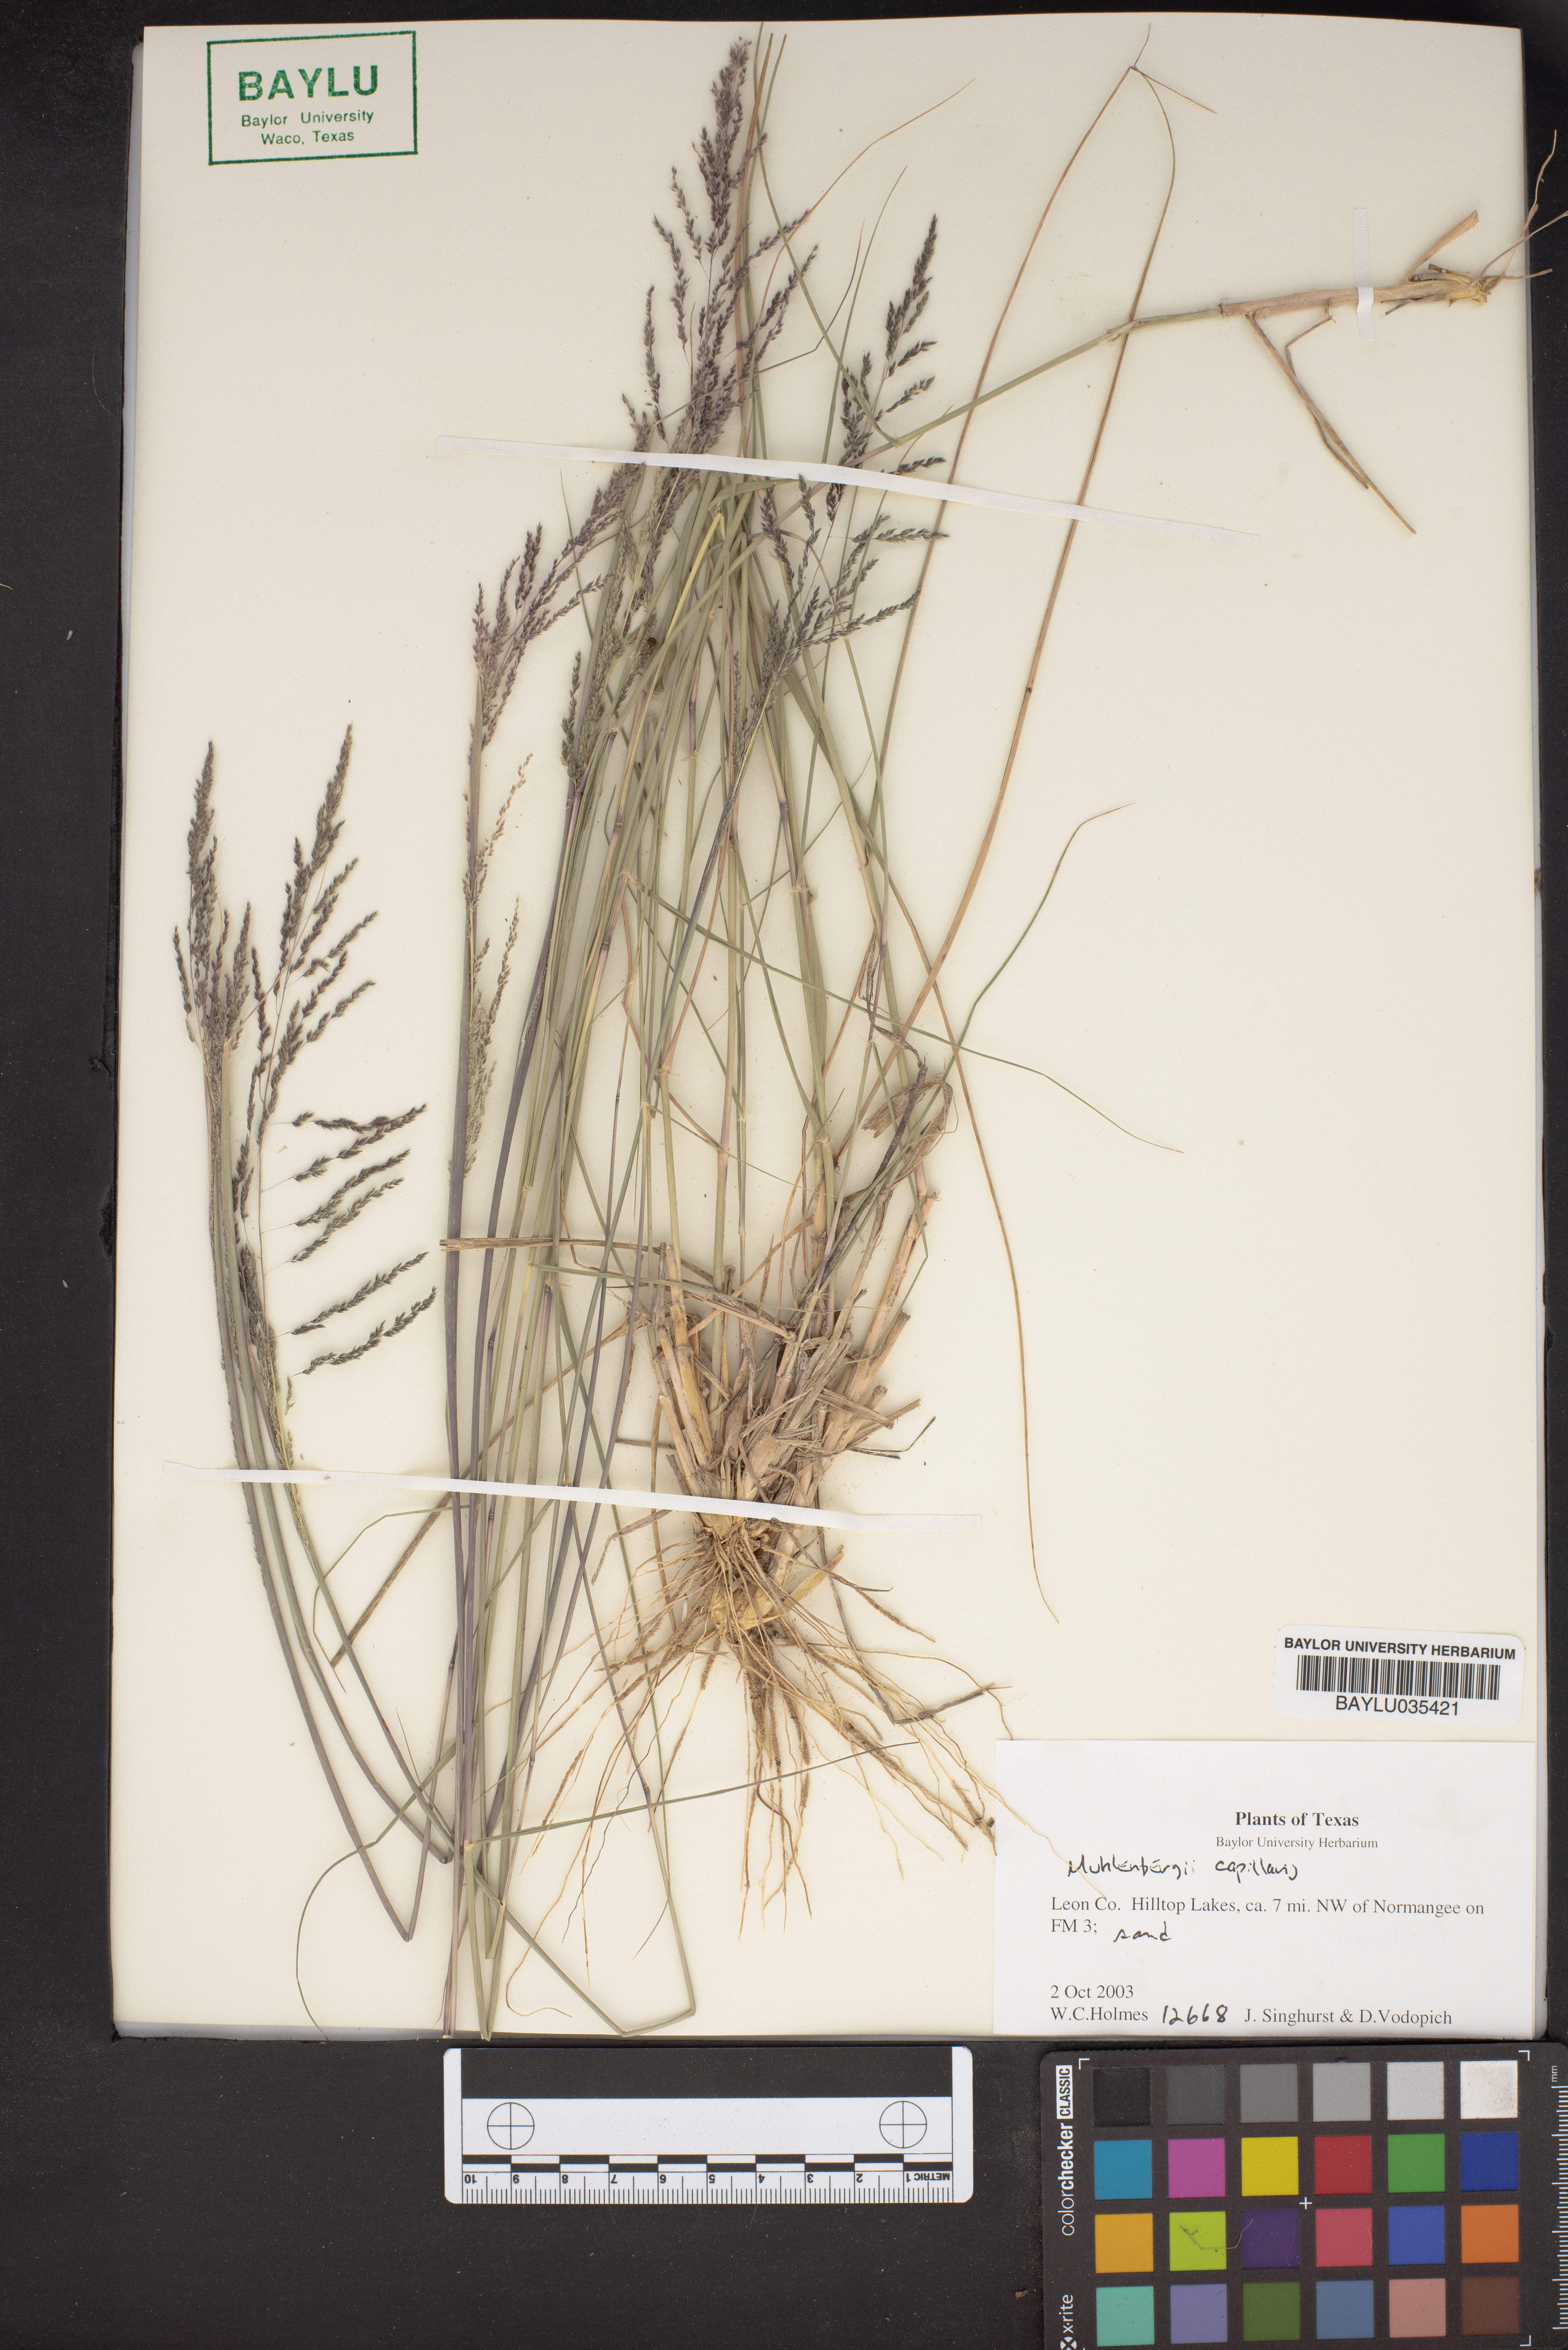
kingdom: Plantae
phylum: Tracheophyta
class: Liliopsida
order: Poales
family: Poaceae
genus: Muhlenbergia
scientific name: Muhlenbergia capillaris
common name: Purple grass
